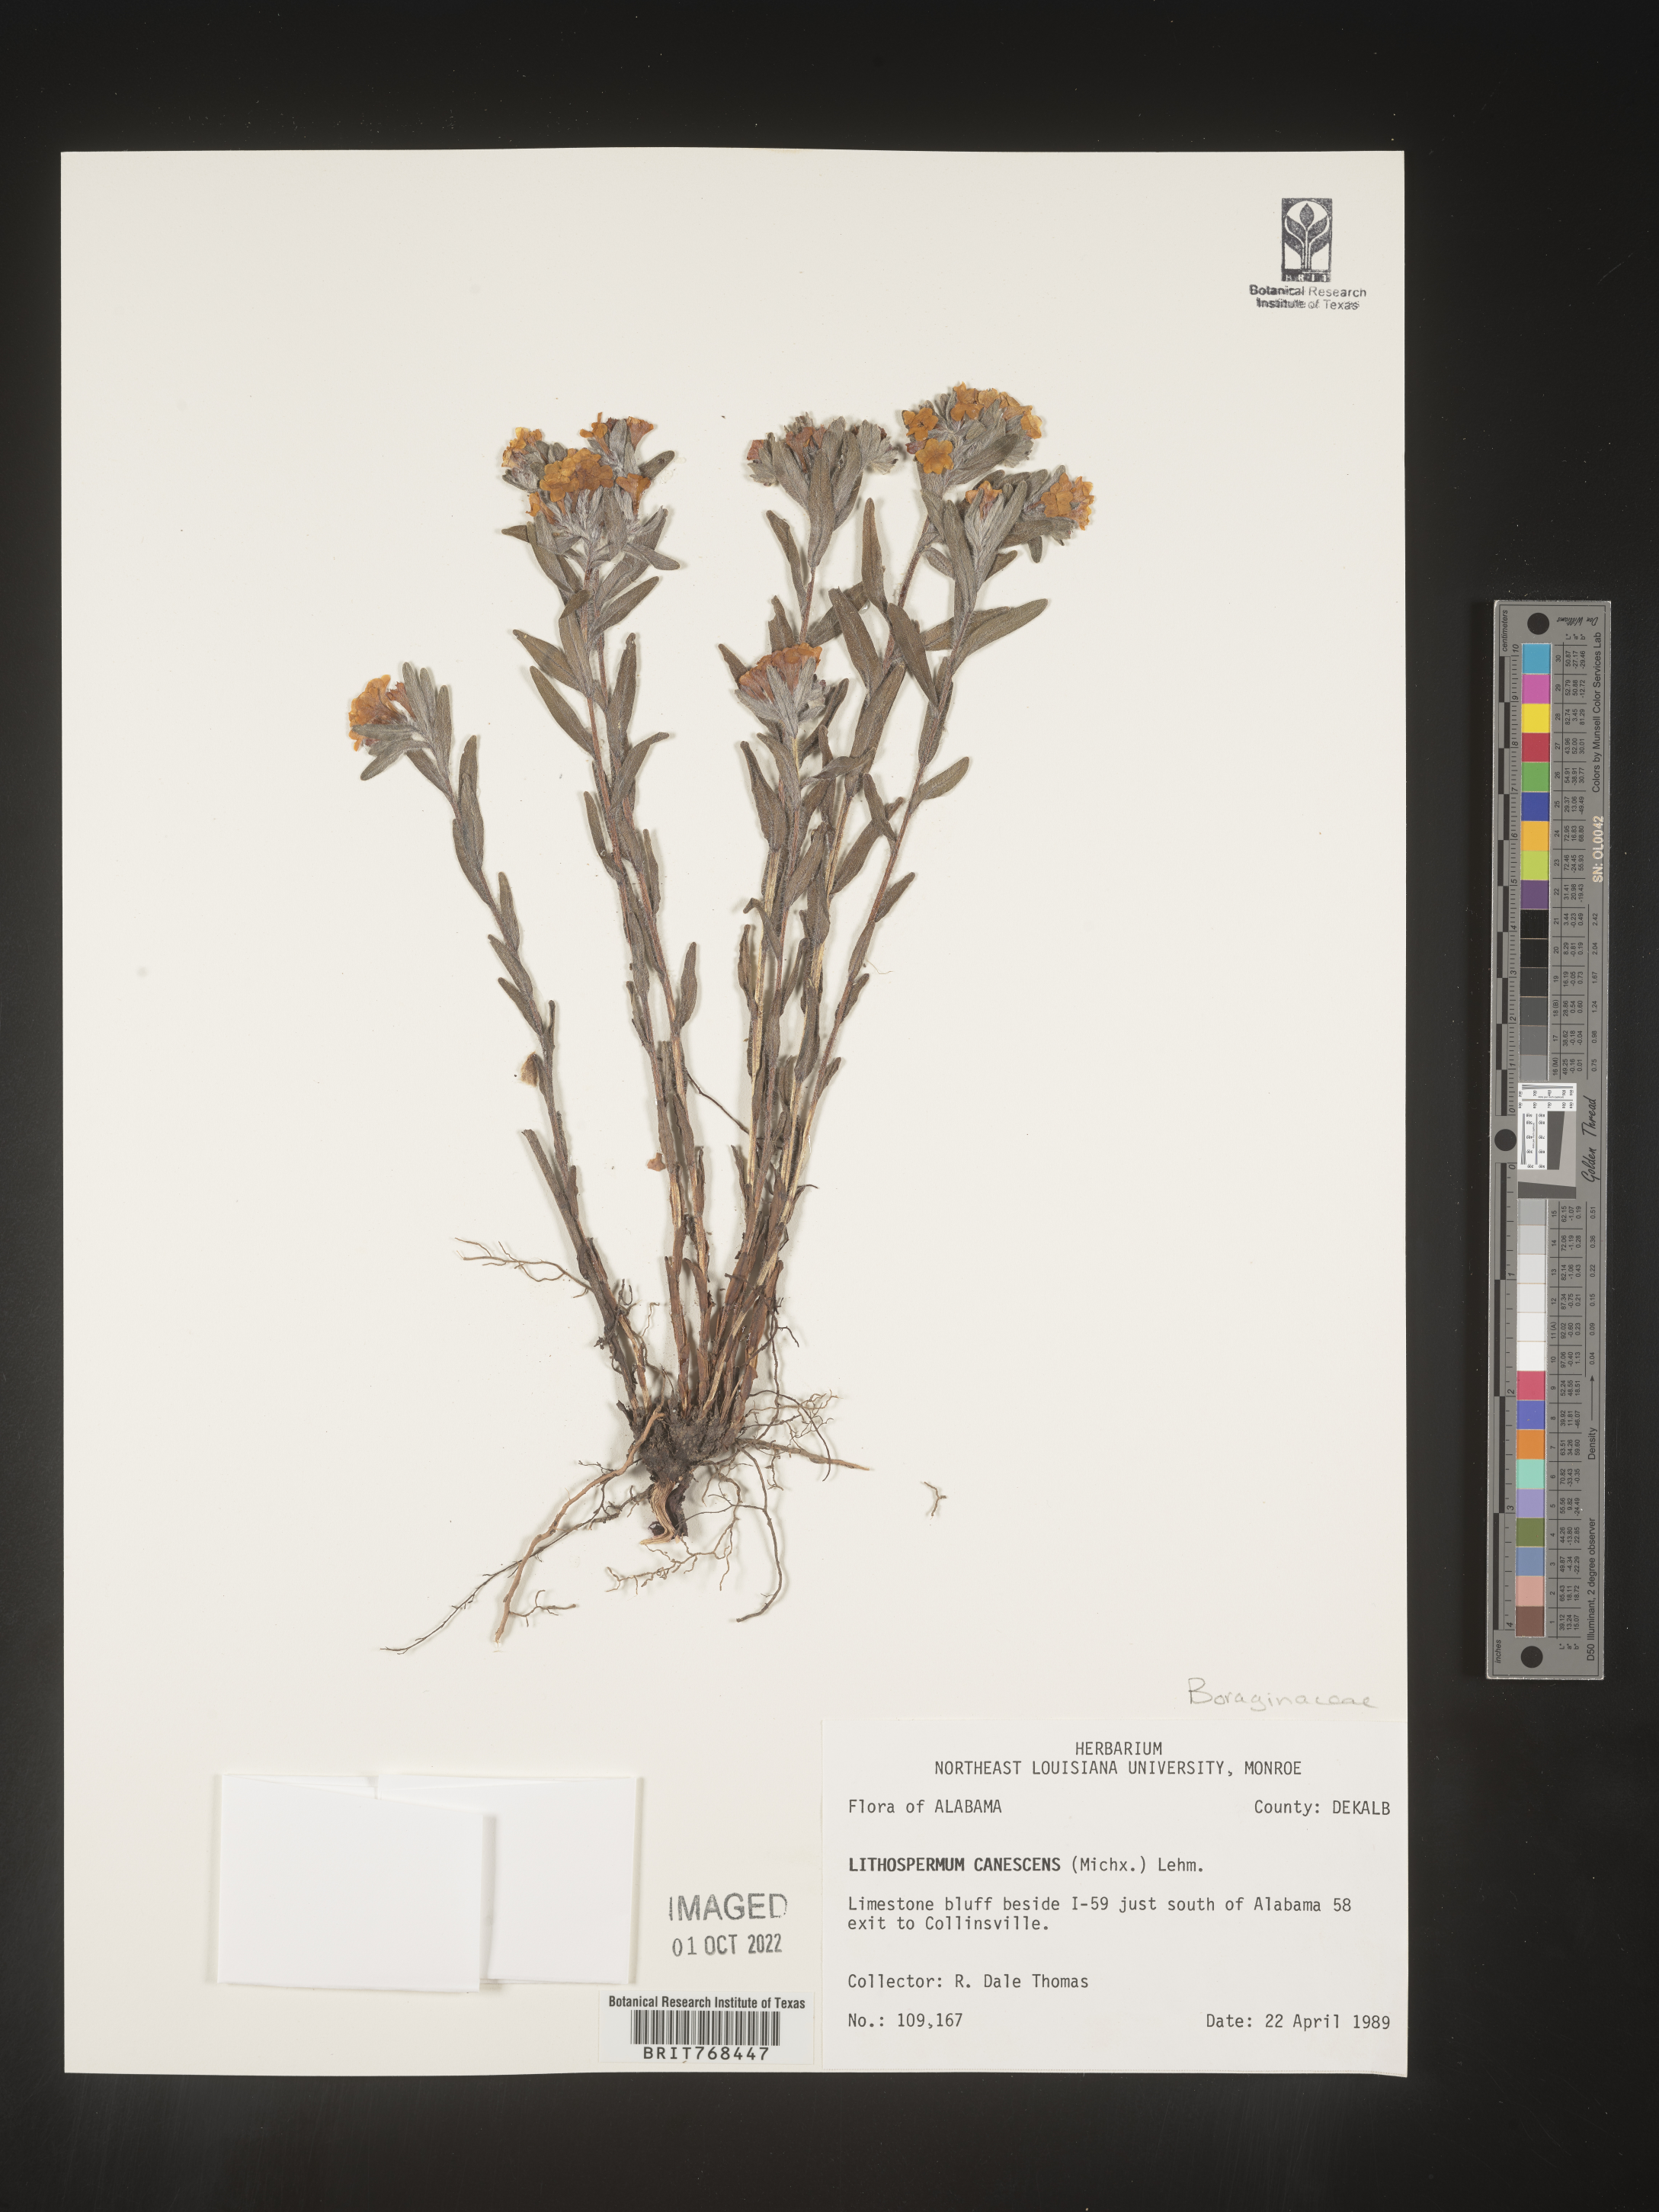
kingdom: Plantae
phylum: Tracheophyta
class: Magnoliopsida
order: Boraginales
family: Boraginaceae
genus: Lithospermum
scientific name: Lithospermum canescens
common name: Hoary puccoon
